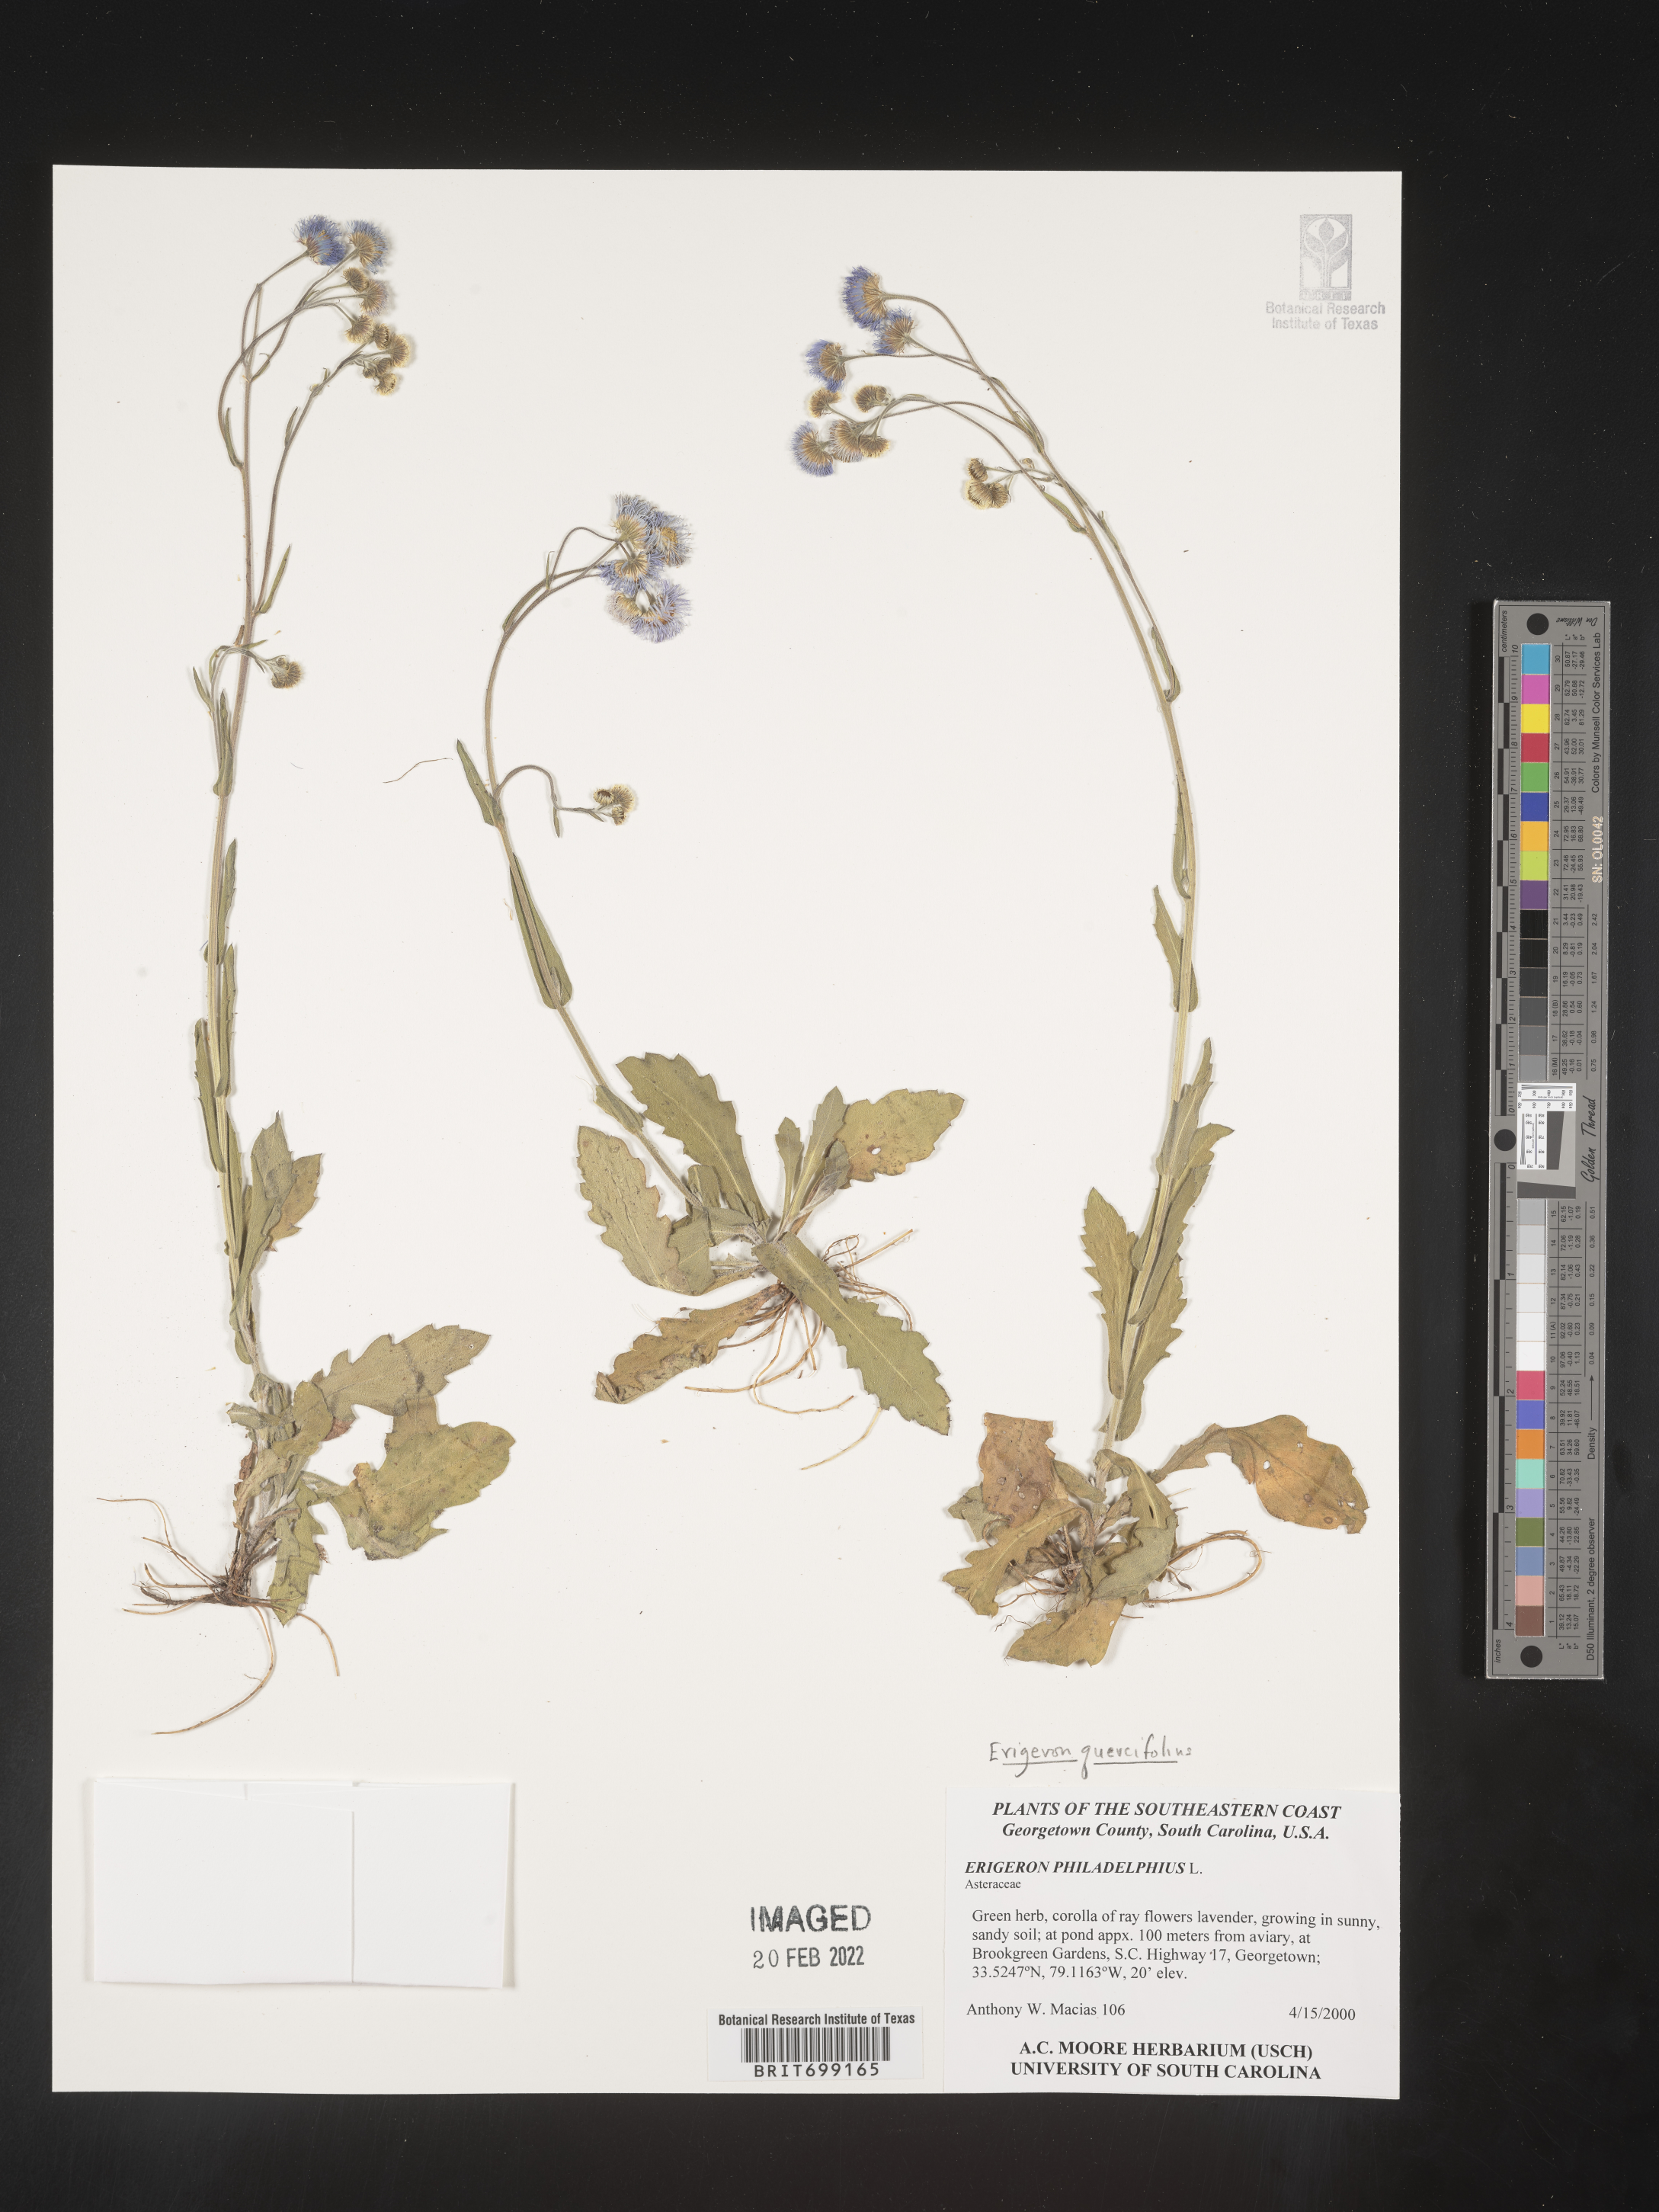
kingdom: Plantae
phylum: Tracheophyta
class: Magnoliopsida
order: Asterales
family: Asteraceae
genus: Erigeron
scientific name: Erigeron quercifolius
